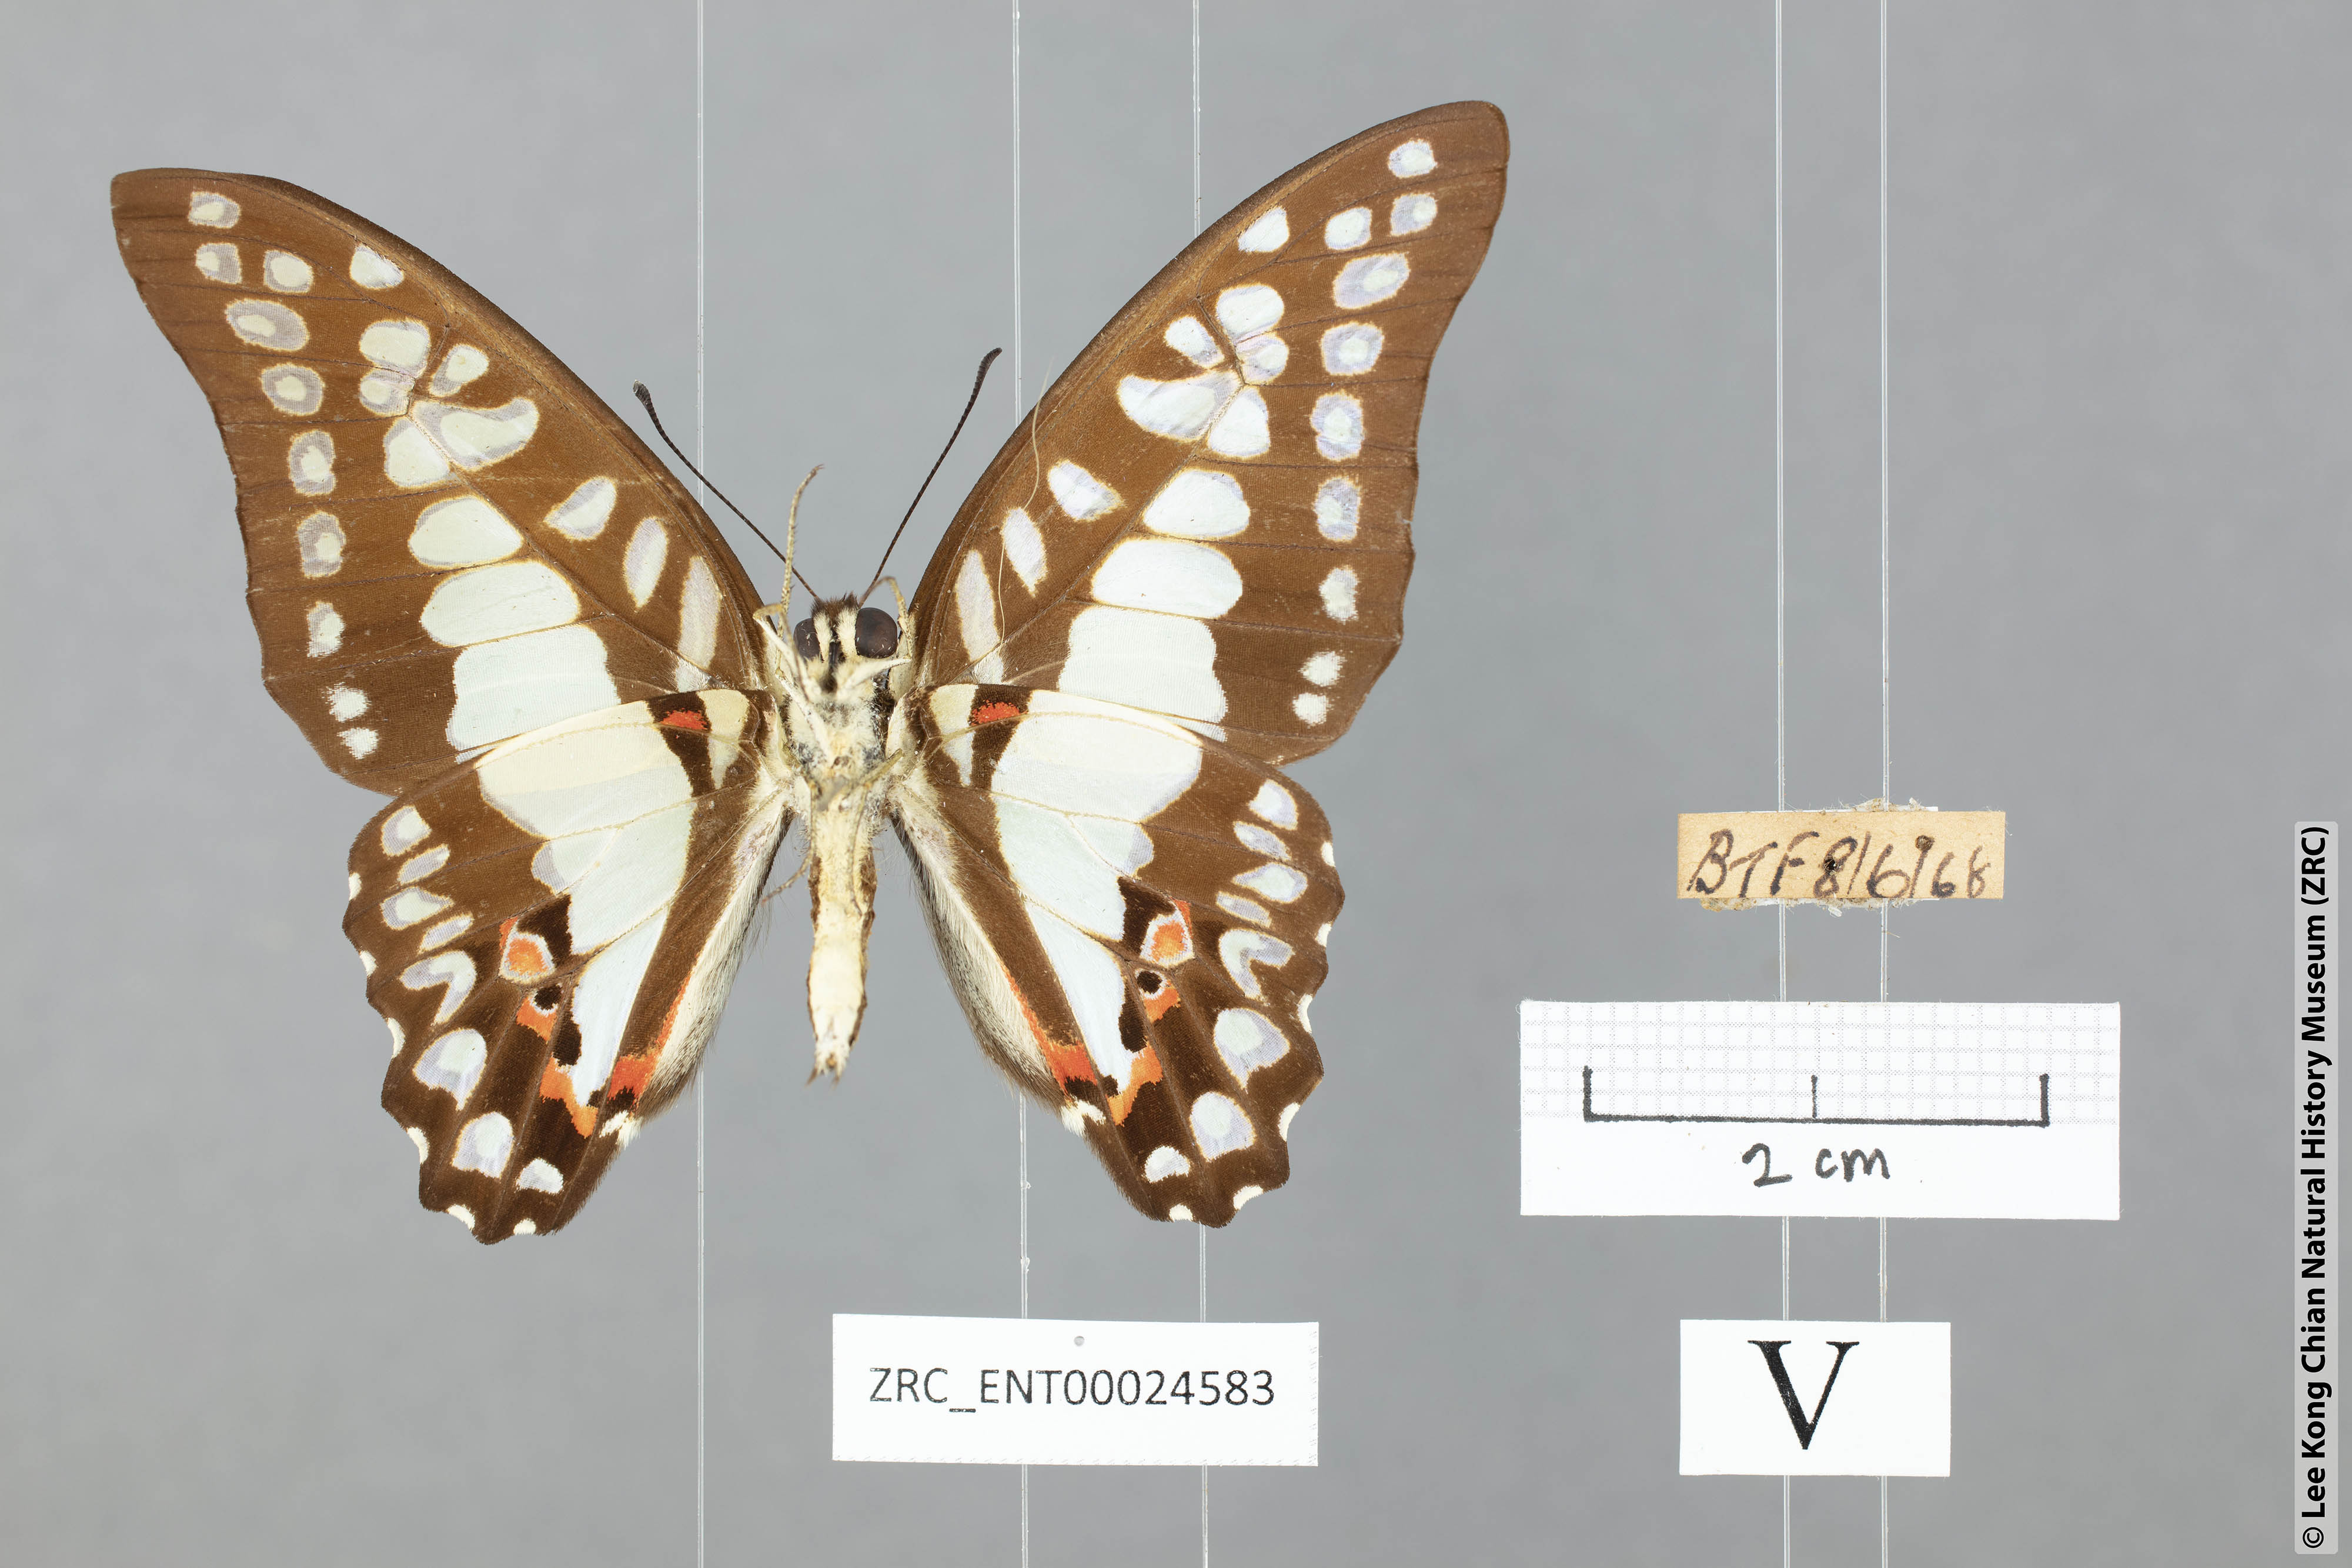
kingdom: Animalia
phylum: Arthropoda
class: Insecta
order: Lepidoptera
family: Papilionidae
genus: Graphium
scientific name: Graphium eurypylus
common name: Great jay
